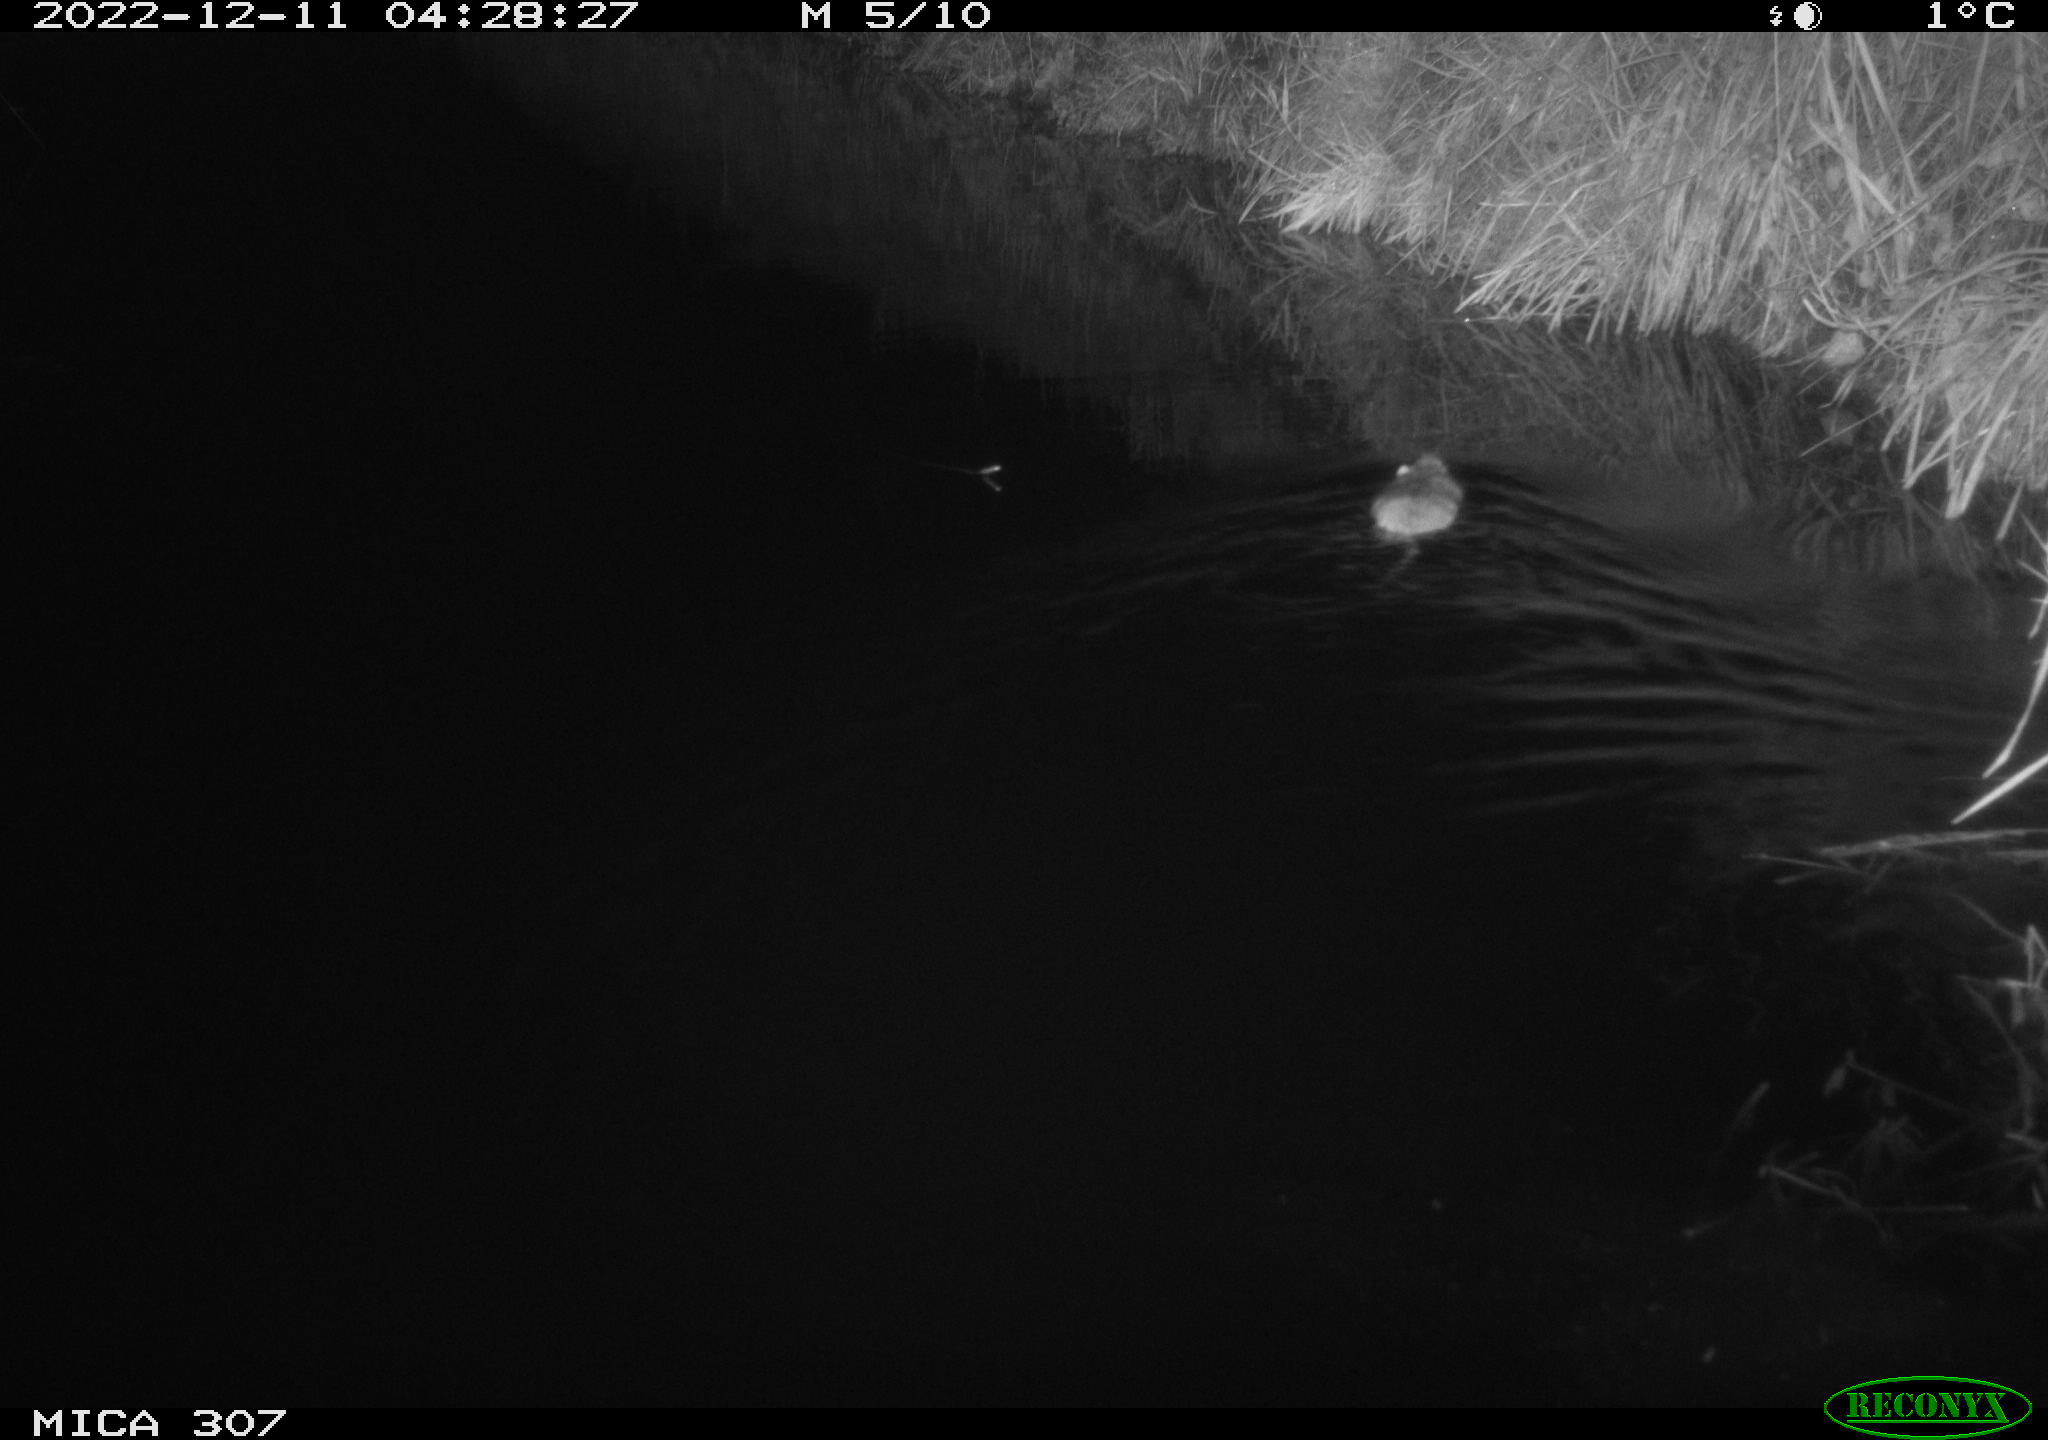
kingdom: Animalia
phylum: Chordata
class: Mammalia
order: Rodentia
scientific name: Rodentia
